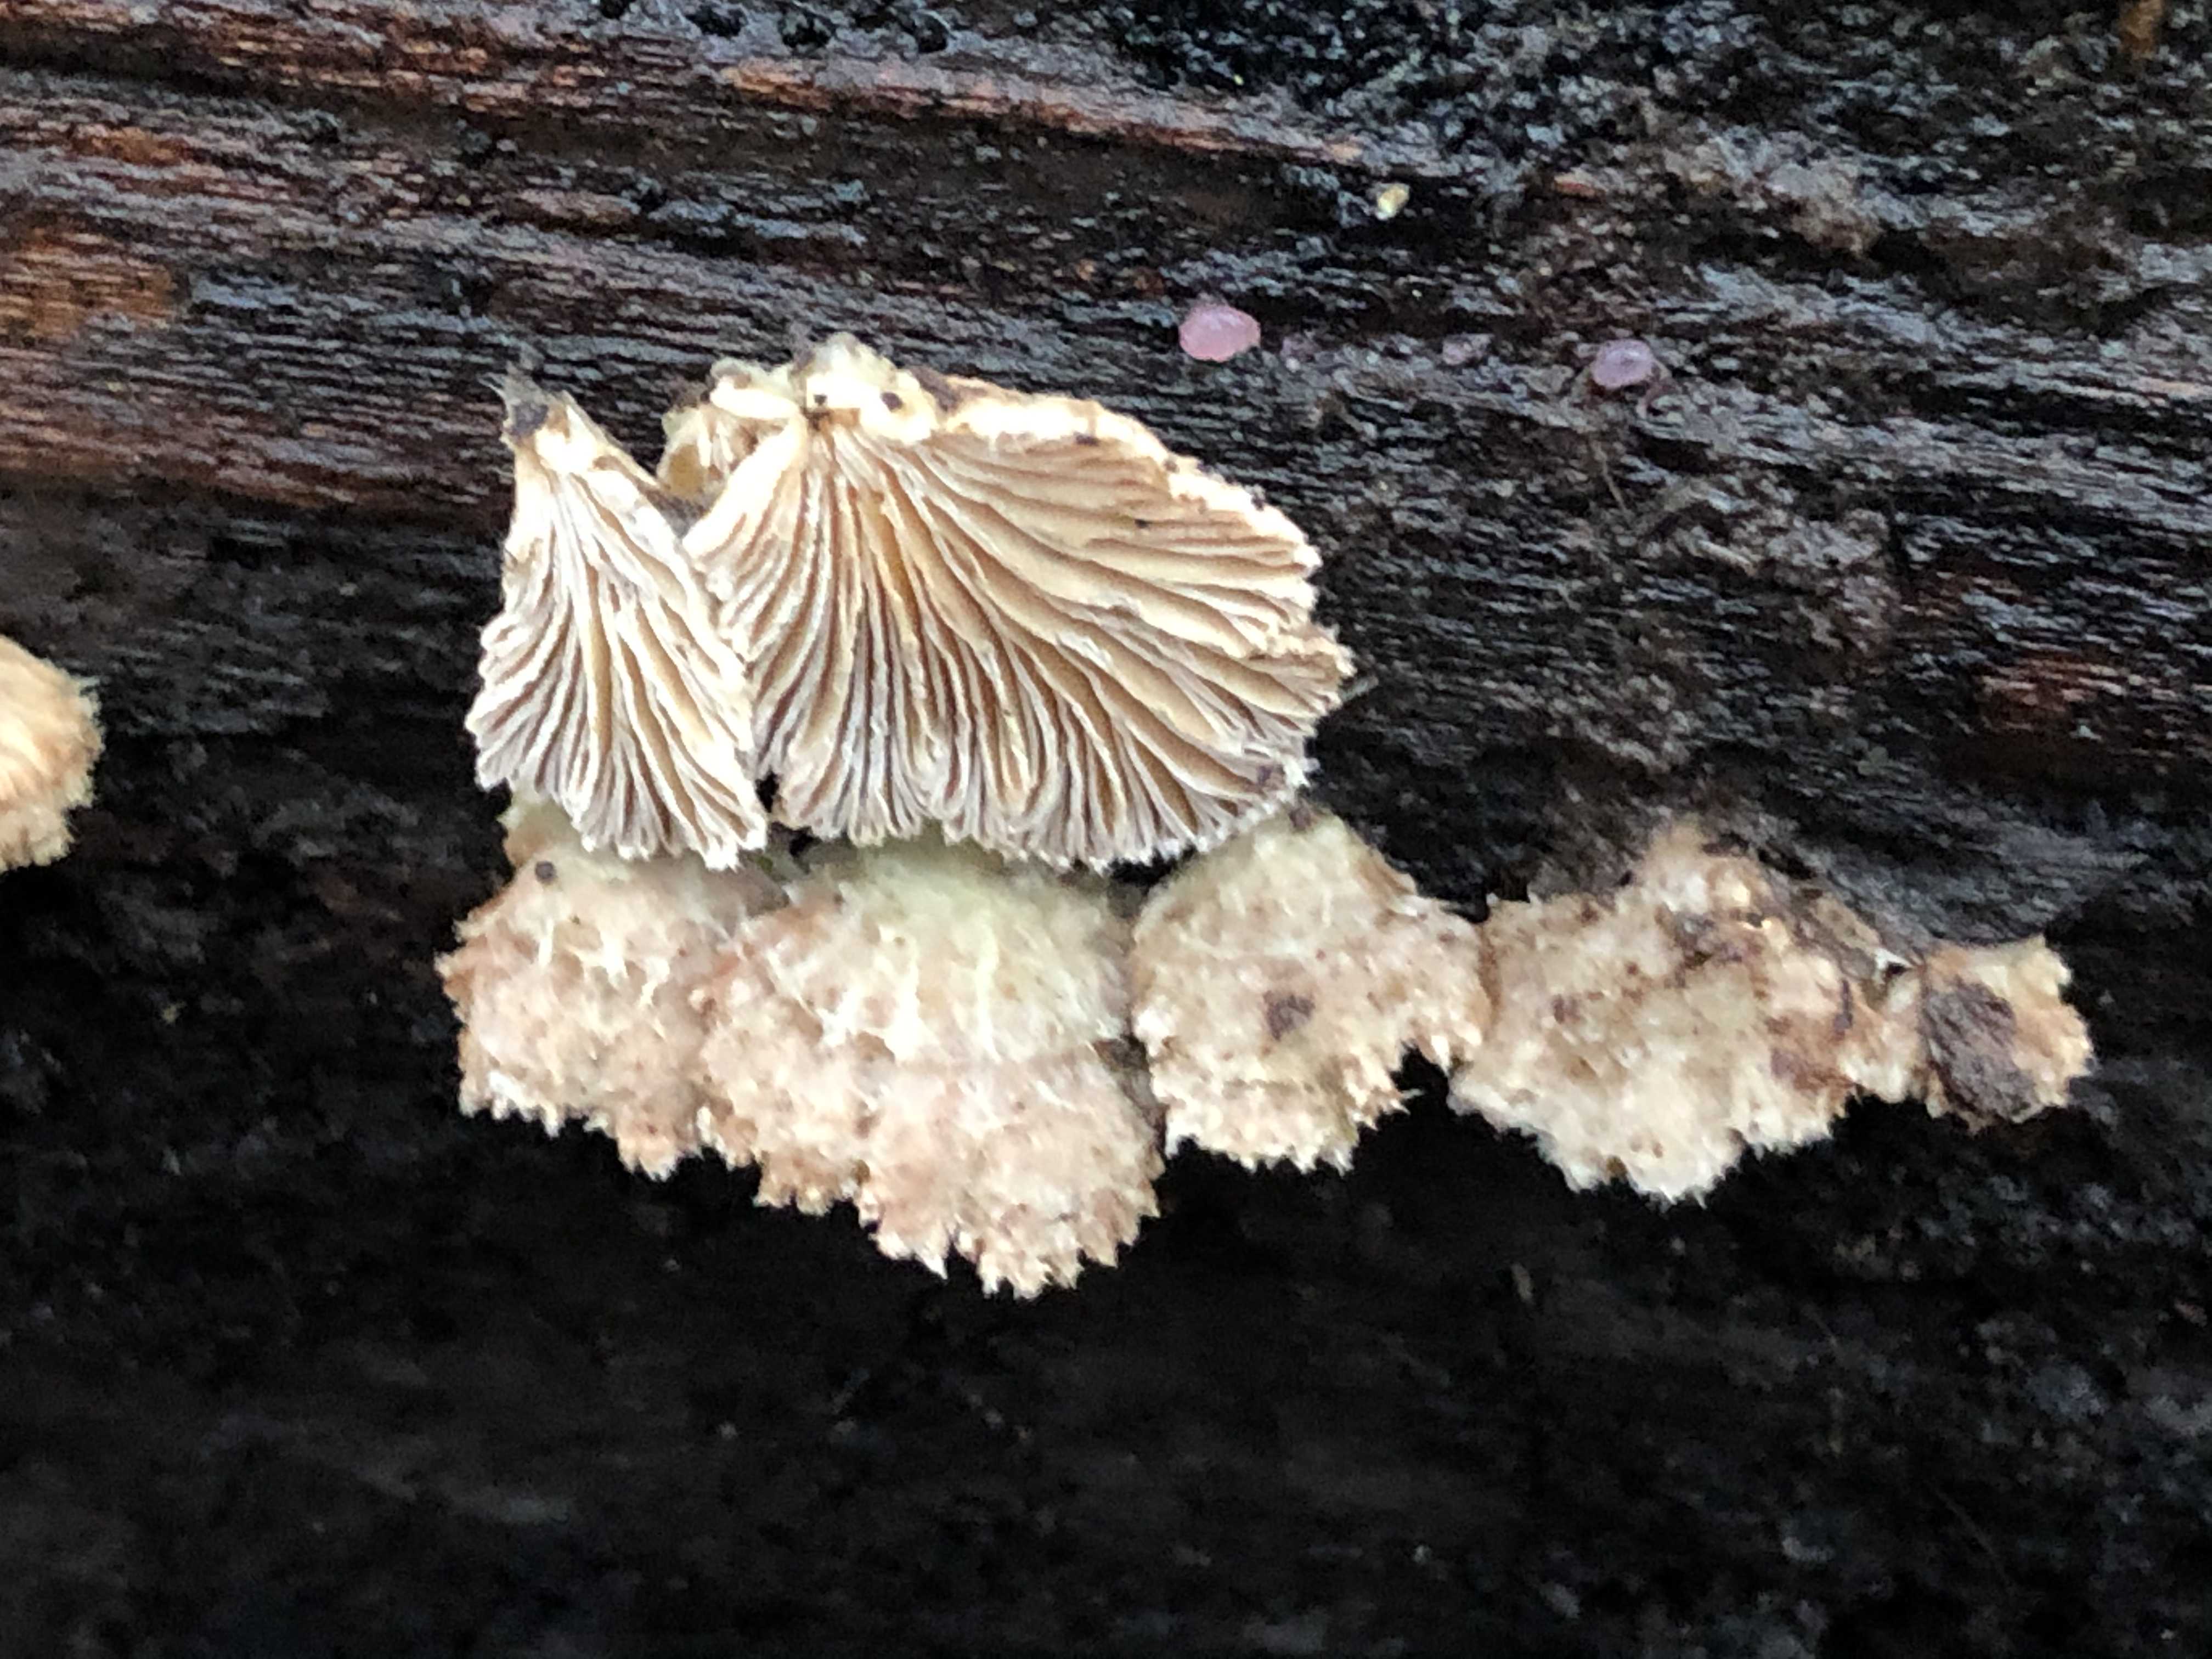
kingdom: Fungi
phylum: Basidiomycota
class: Agaricomycetes
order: Agaricales
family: Schizophyllaceae
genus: Schizophyllum
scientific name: Schizophyllum commune
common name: kløvblad
